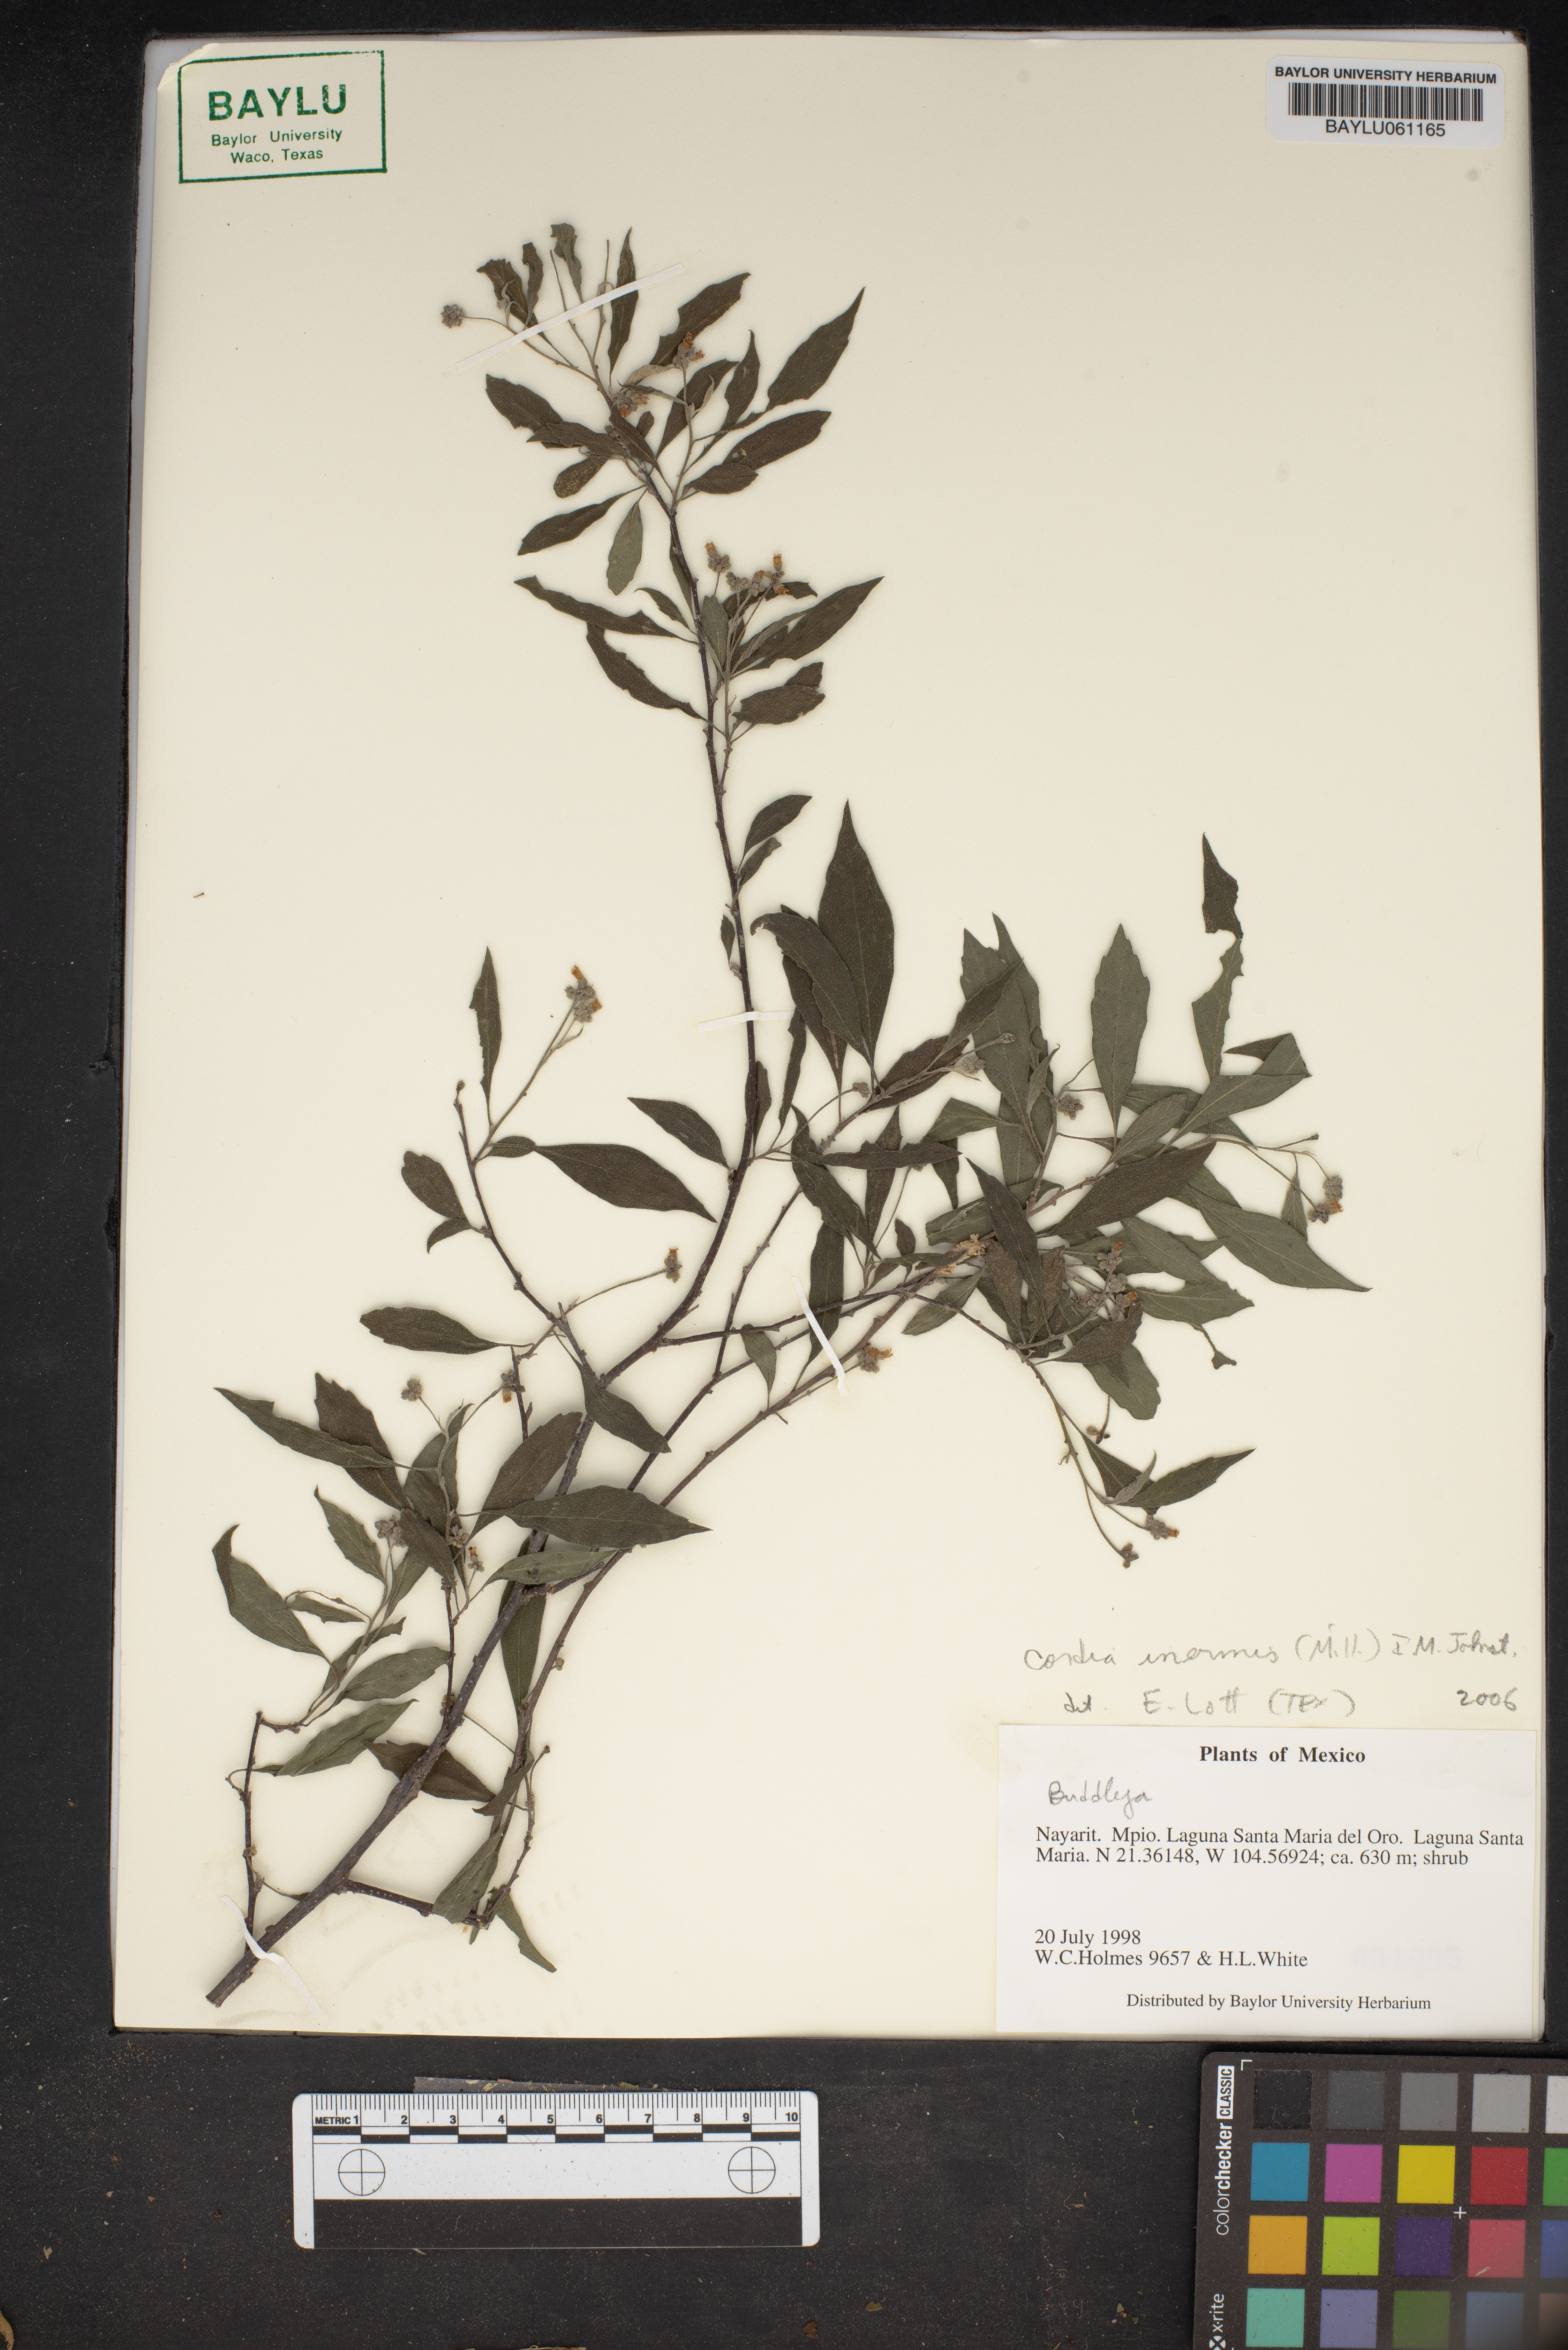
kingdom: Plantae
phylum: Tracheophyta
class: Magnoliopsida
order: Boraginales
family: Cordiaceae
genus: Varronia
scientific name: Varronia inermis
